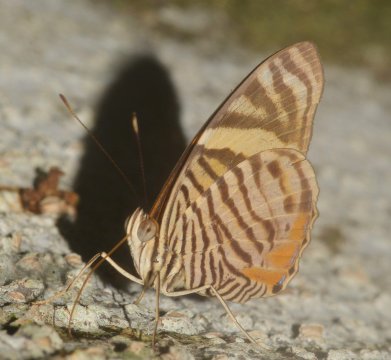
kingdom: Animalia
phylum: Arthropoda
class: Insecta
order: Lepidoptera
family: Nymphalidae
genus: Callizona
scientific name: Callizona acesta
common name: Tiger Beauty
